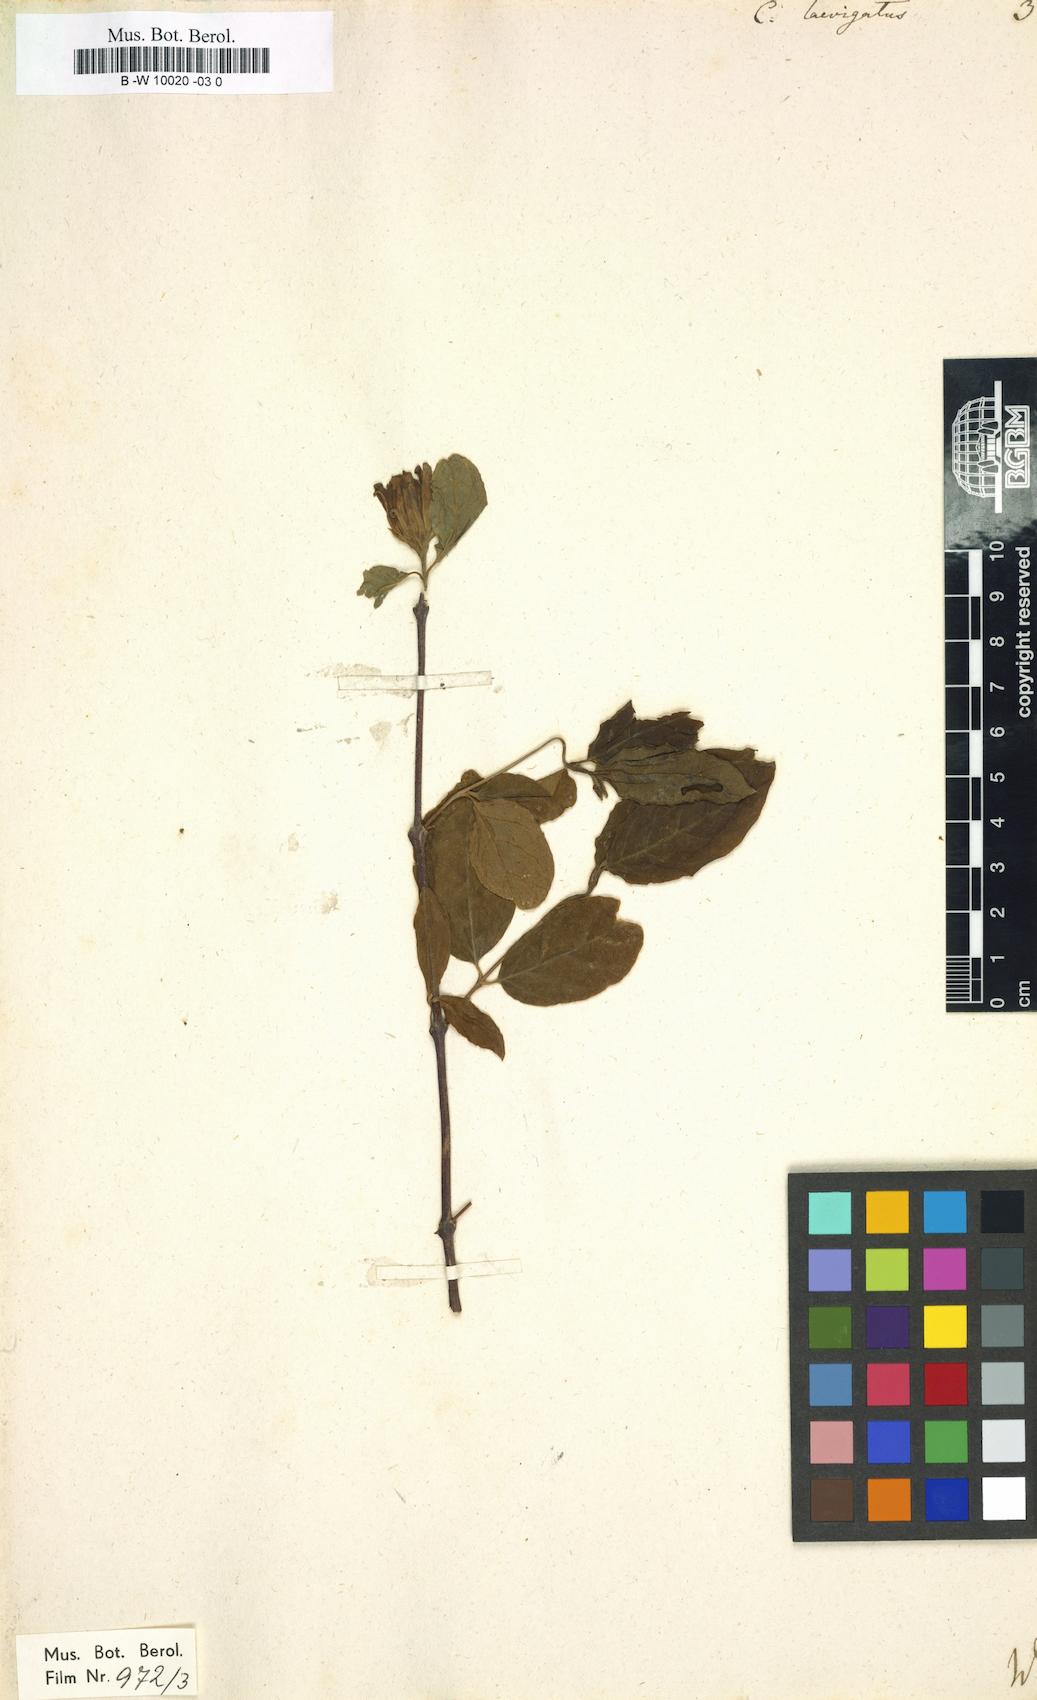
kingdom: Plantae
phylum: Tracheophyta
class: Magnoliopsida
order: Laurales
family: Calycanthaceae
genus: Calycanthus
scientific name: Calycanthus floridus
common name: Carolina-allspice
